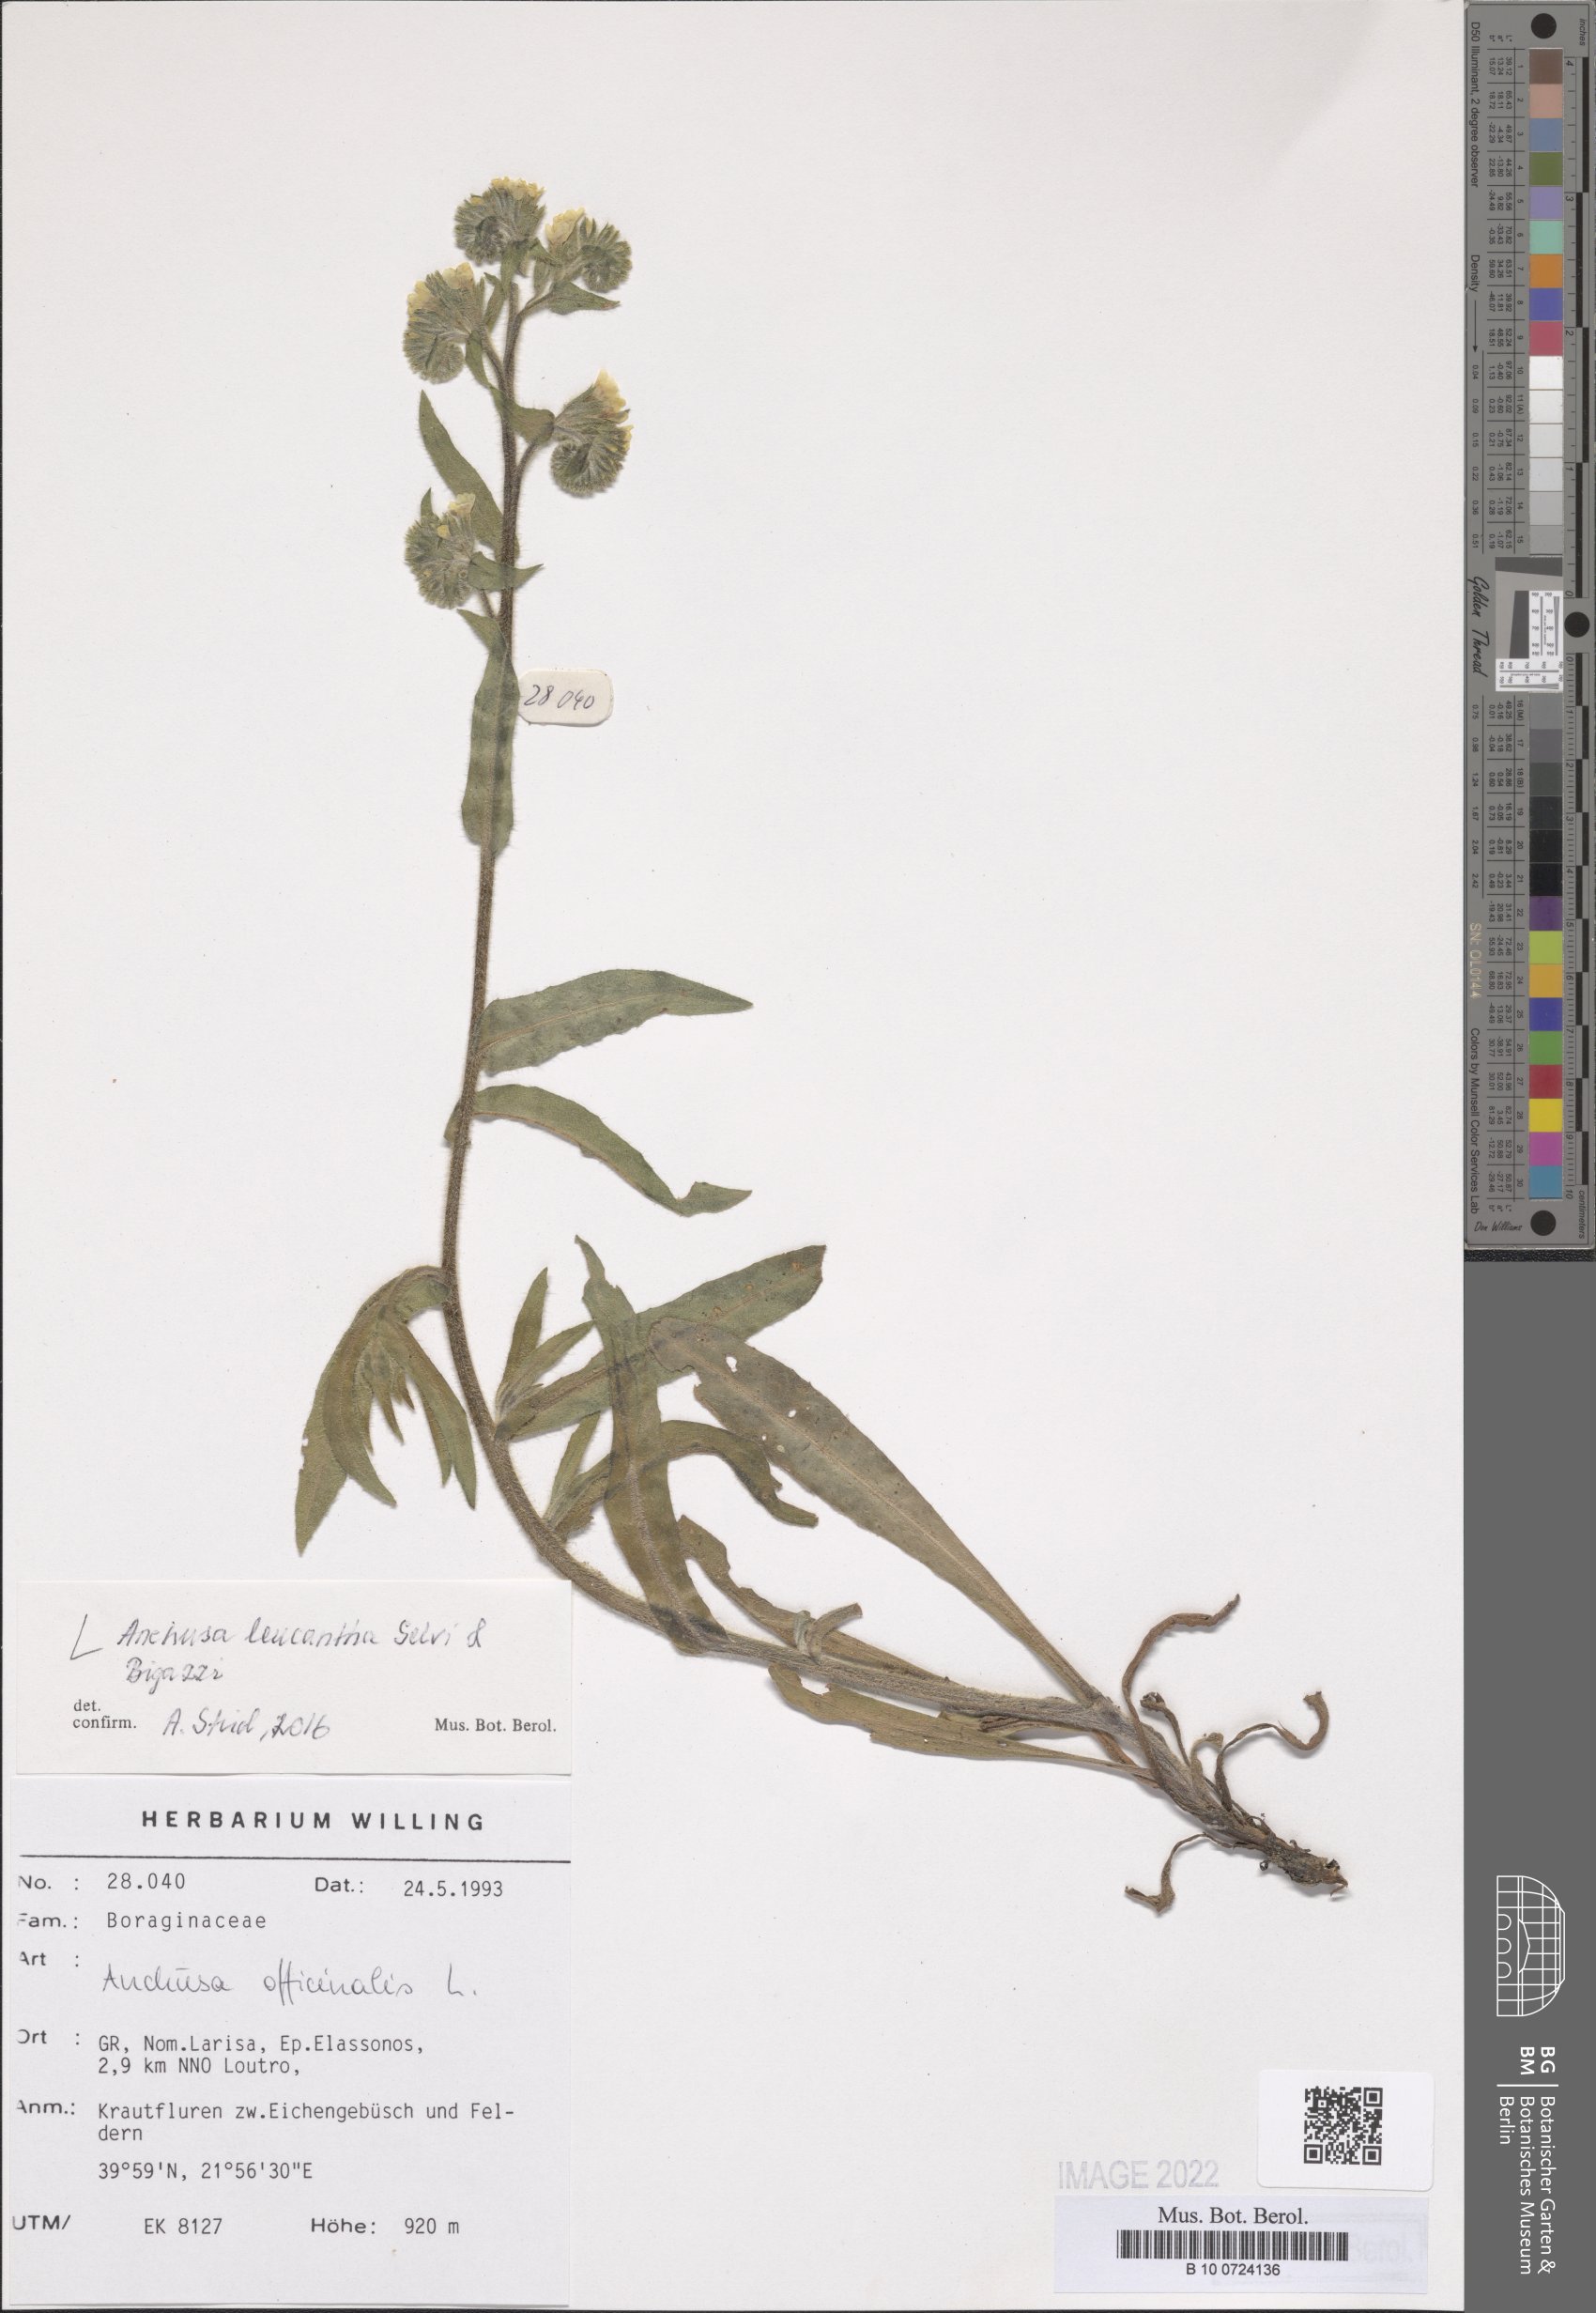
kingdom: Plantae
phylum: Tracheophyta
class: Magnoliopsida
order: Boraginales
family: Boraginaceae
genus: Anchusa
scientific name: Anchusa officinalis
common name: Alkanet
